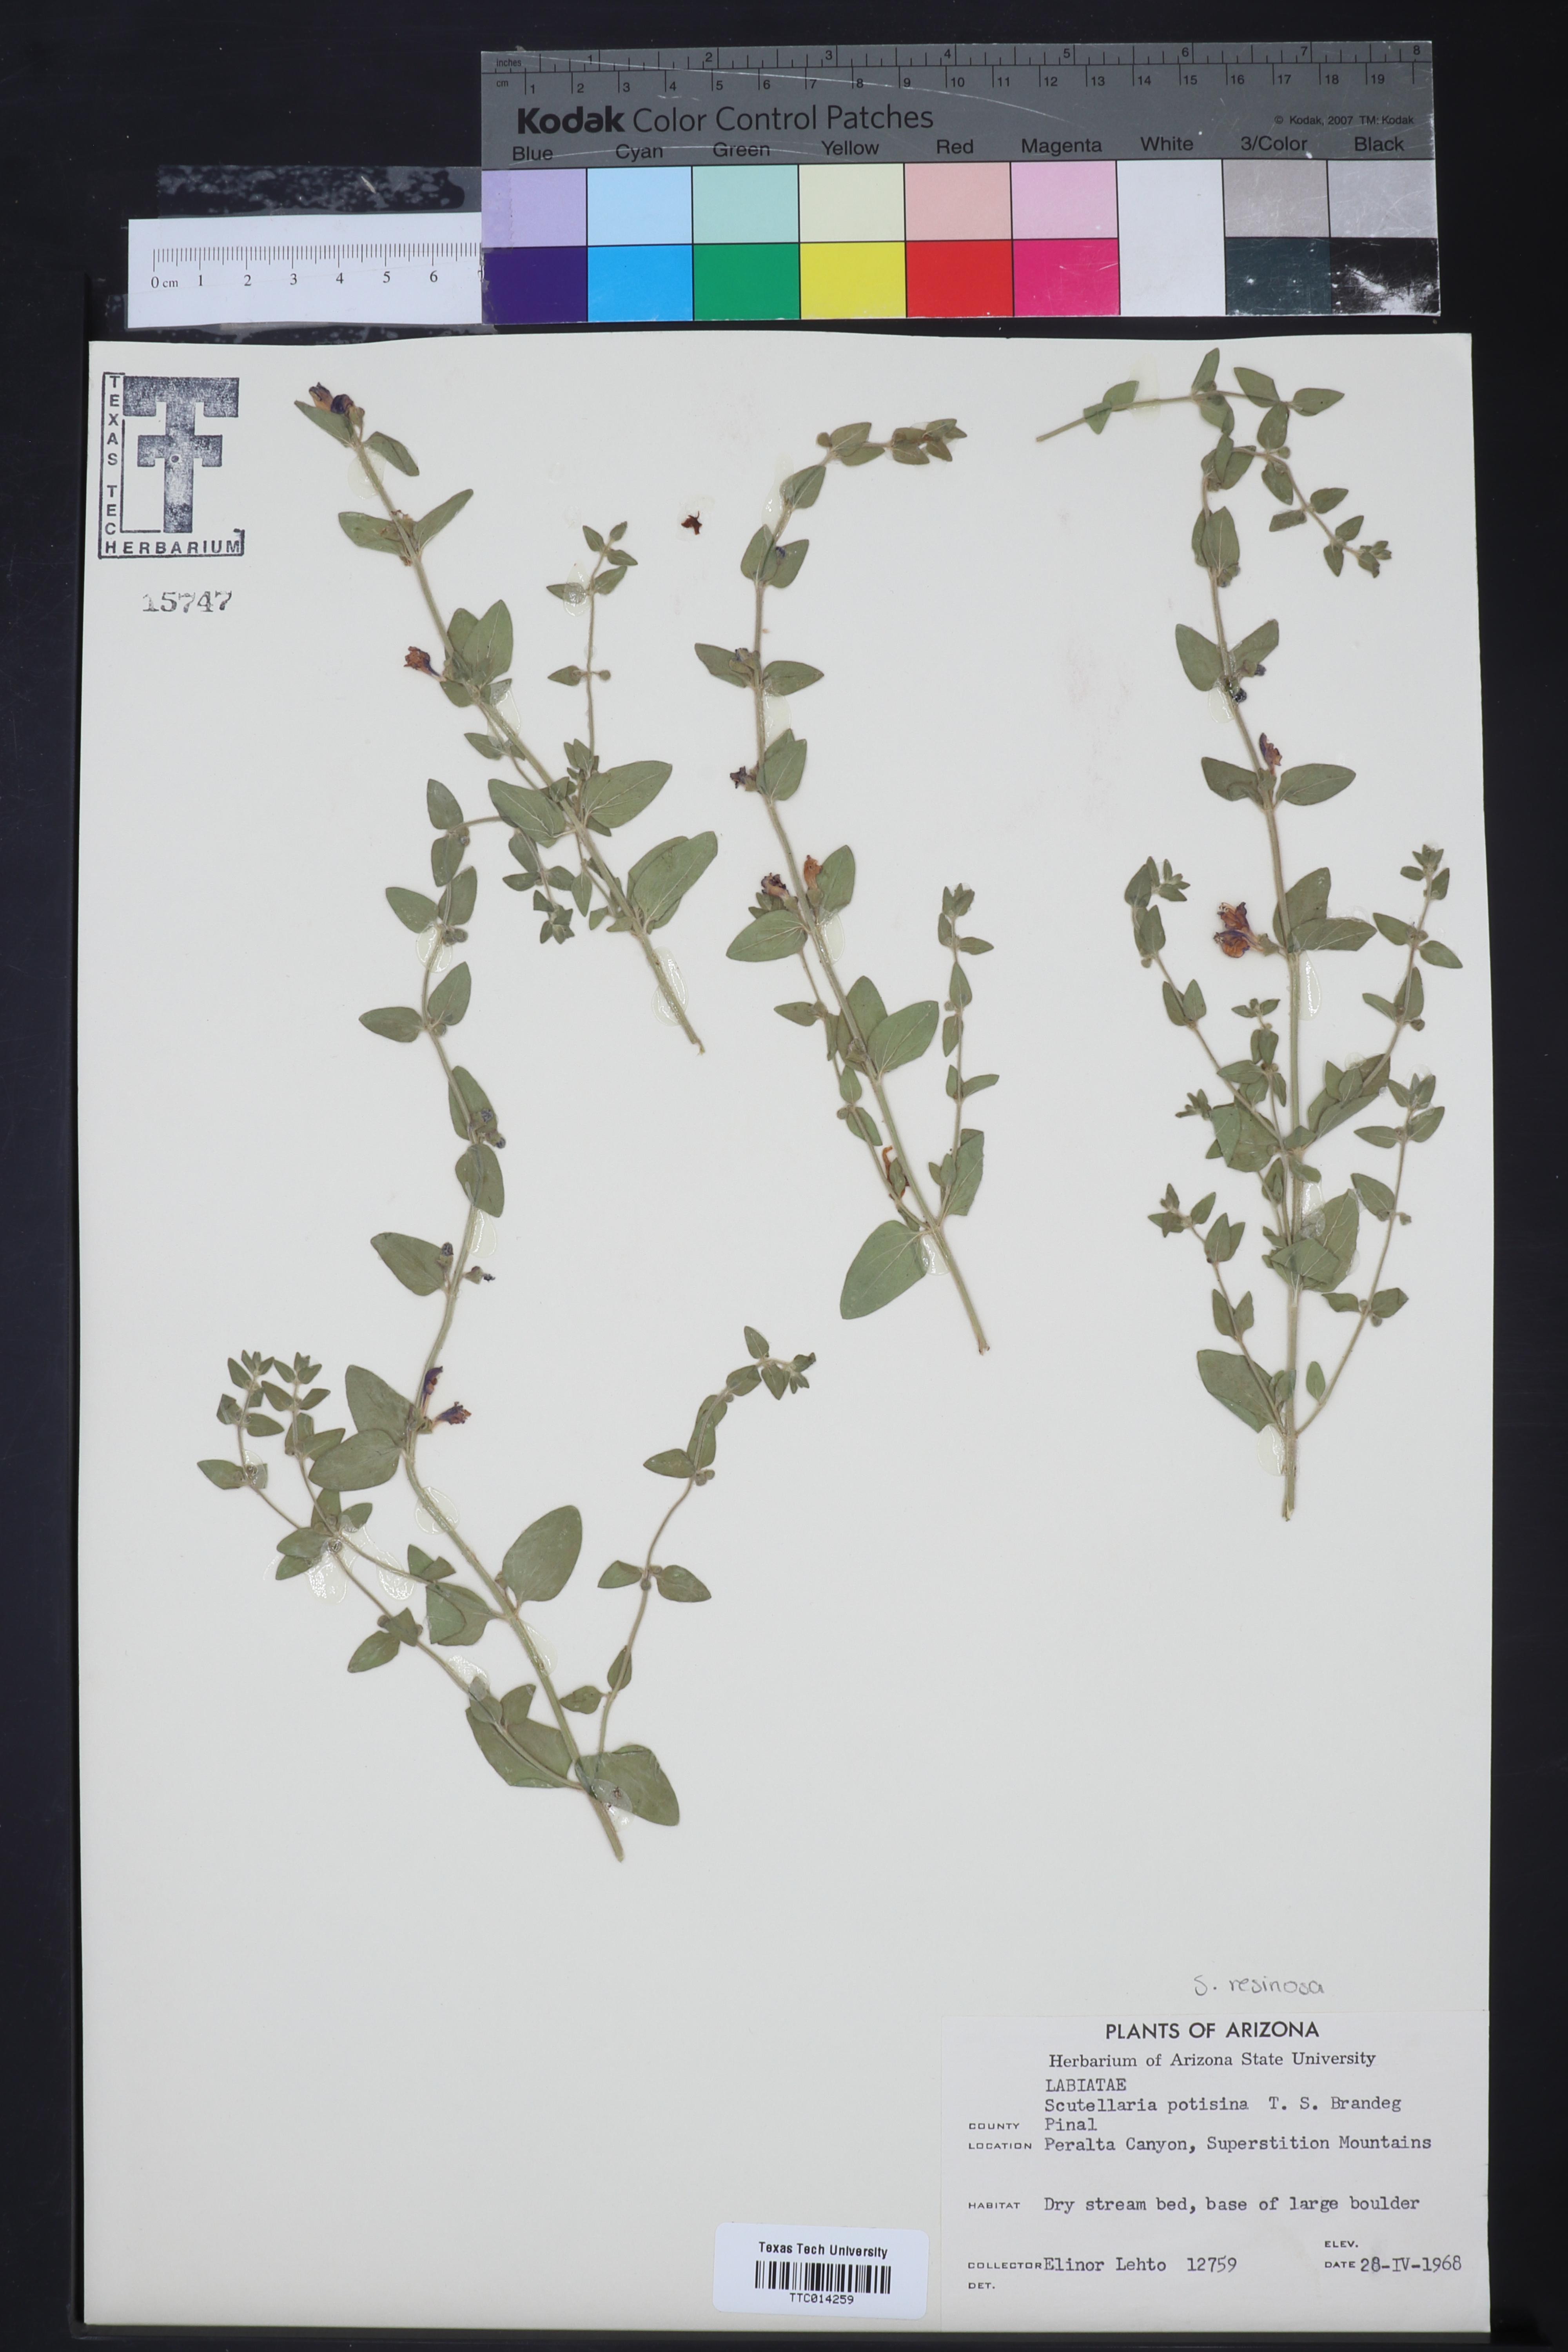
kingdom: Plantae
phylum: Tracheophyta
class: Magnoliopsida
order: Lamiales
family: Lamiaceae
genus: Scutellaria
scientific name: Scutellaria potosina
